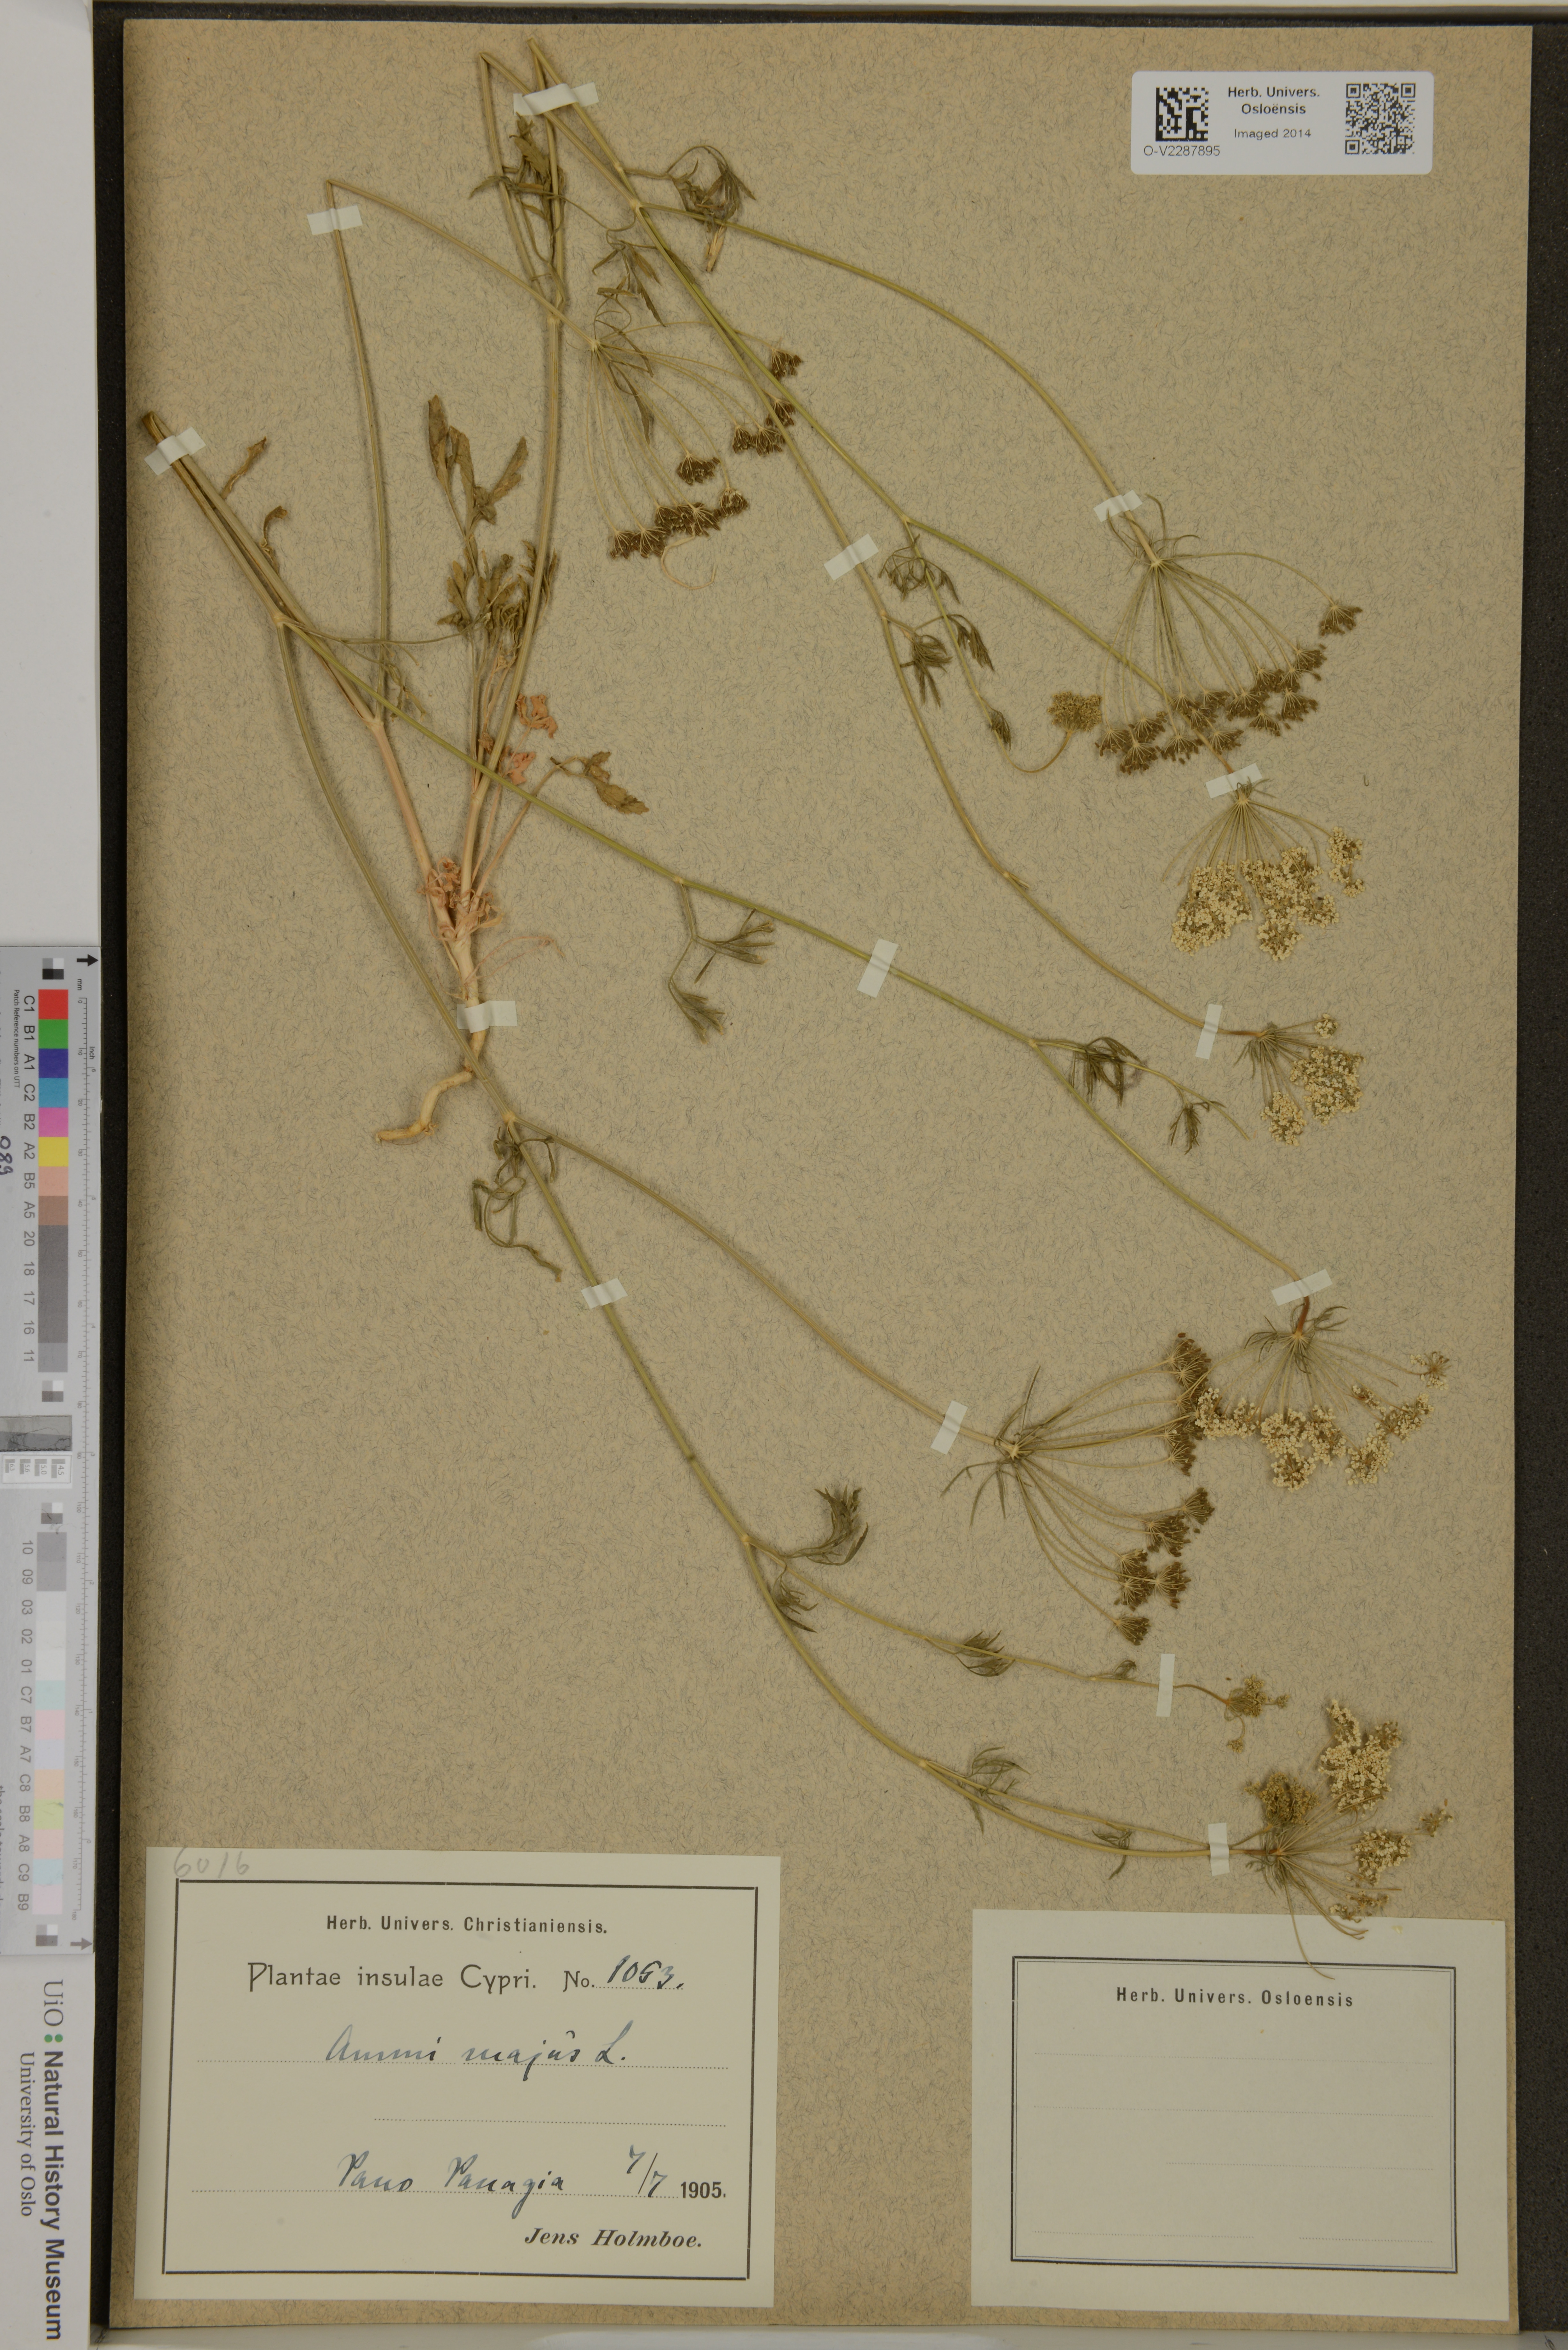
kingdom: Plantae
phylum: Tracheophyta
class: Magnoliopsida
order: Apiales
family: Apiaceae
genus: Ammi
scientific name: Ammi majus
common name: Bullwort
